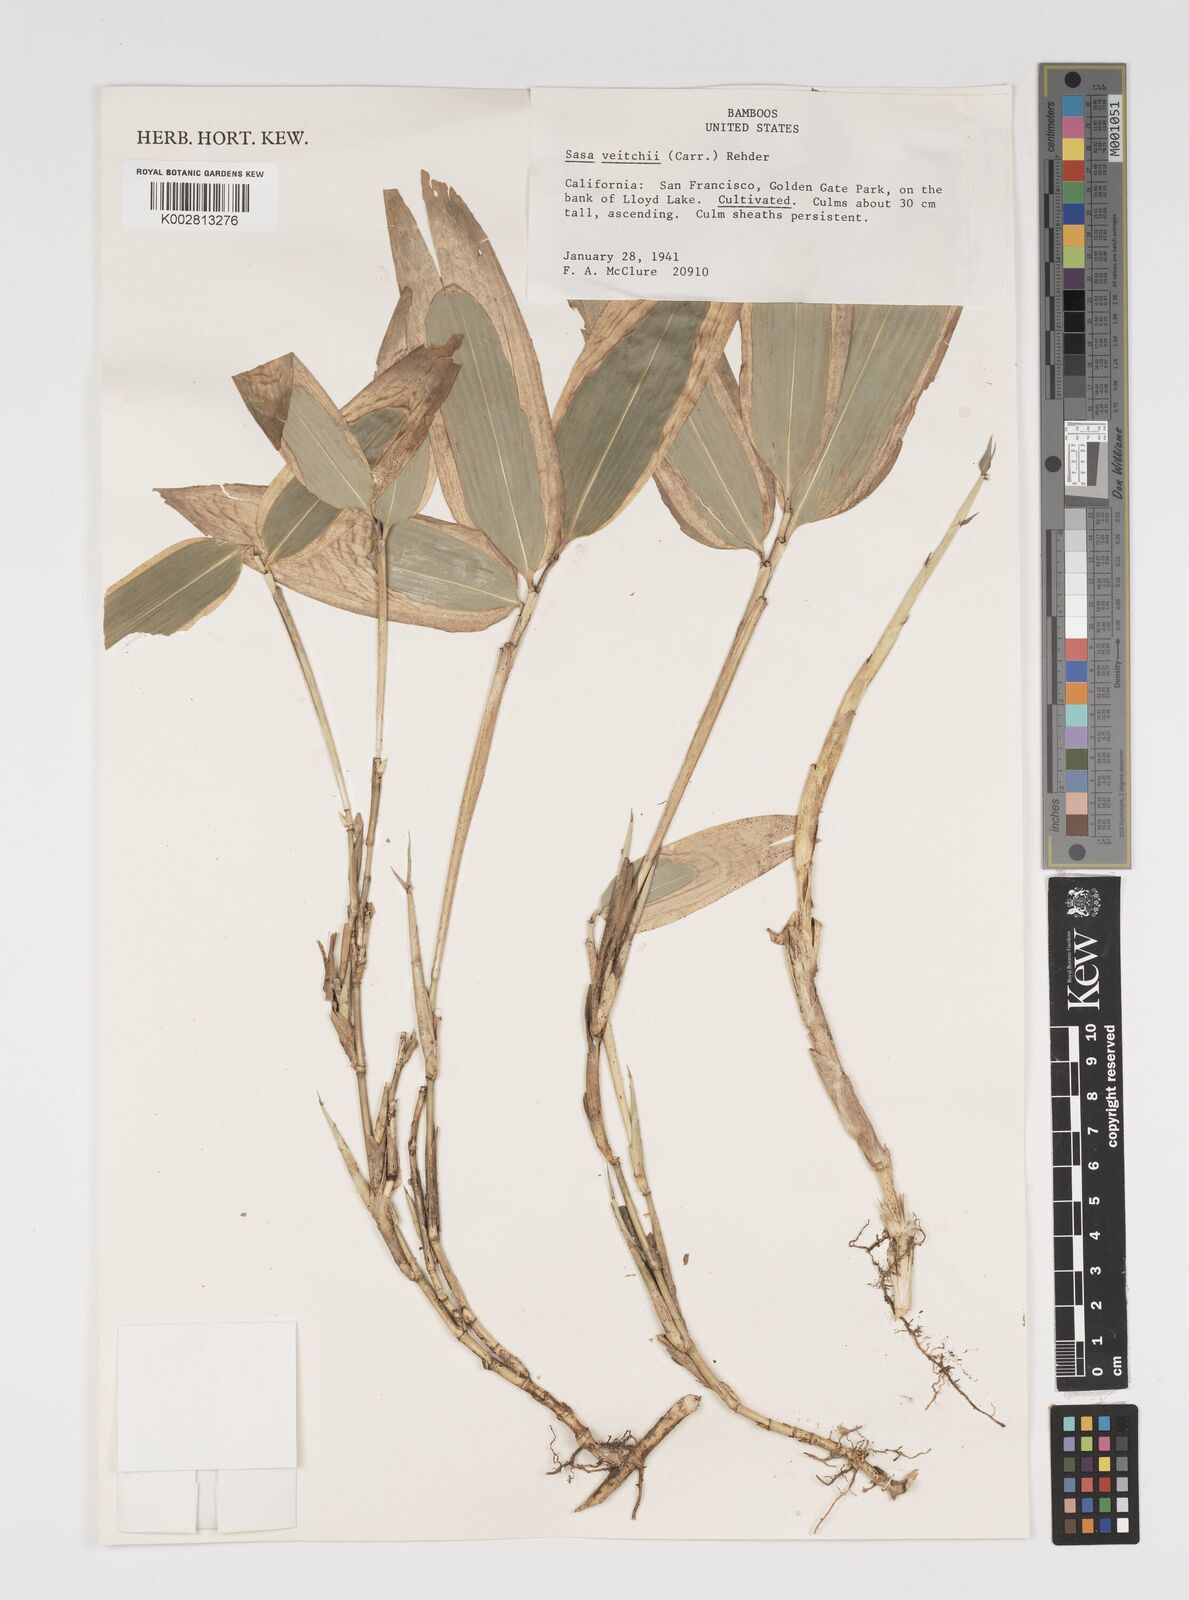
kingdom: Plantae
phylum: Tracheophyta
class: Liliopsida
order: Poales
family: Poaceae
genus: Sasa
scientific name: Sasa veitchii
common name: Veitch's bamboo
